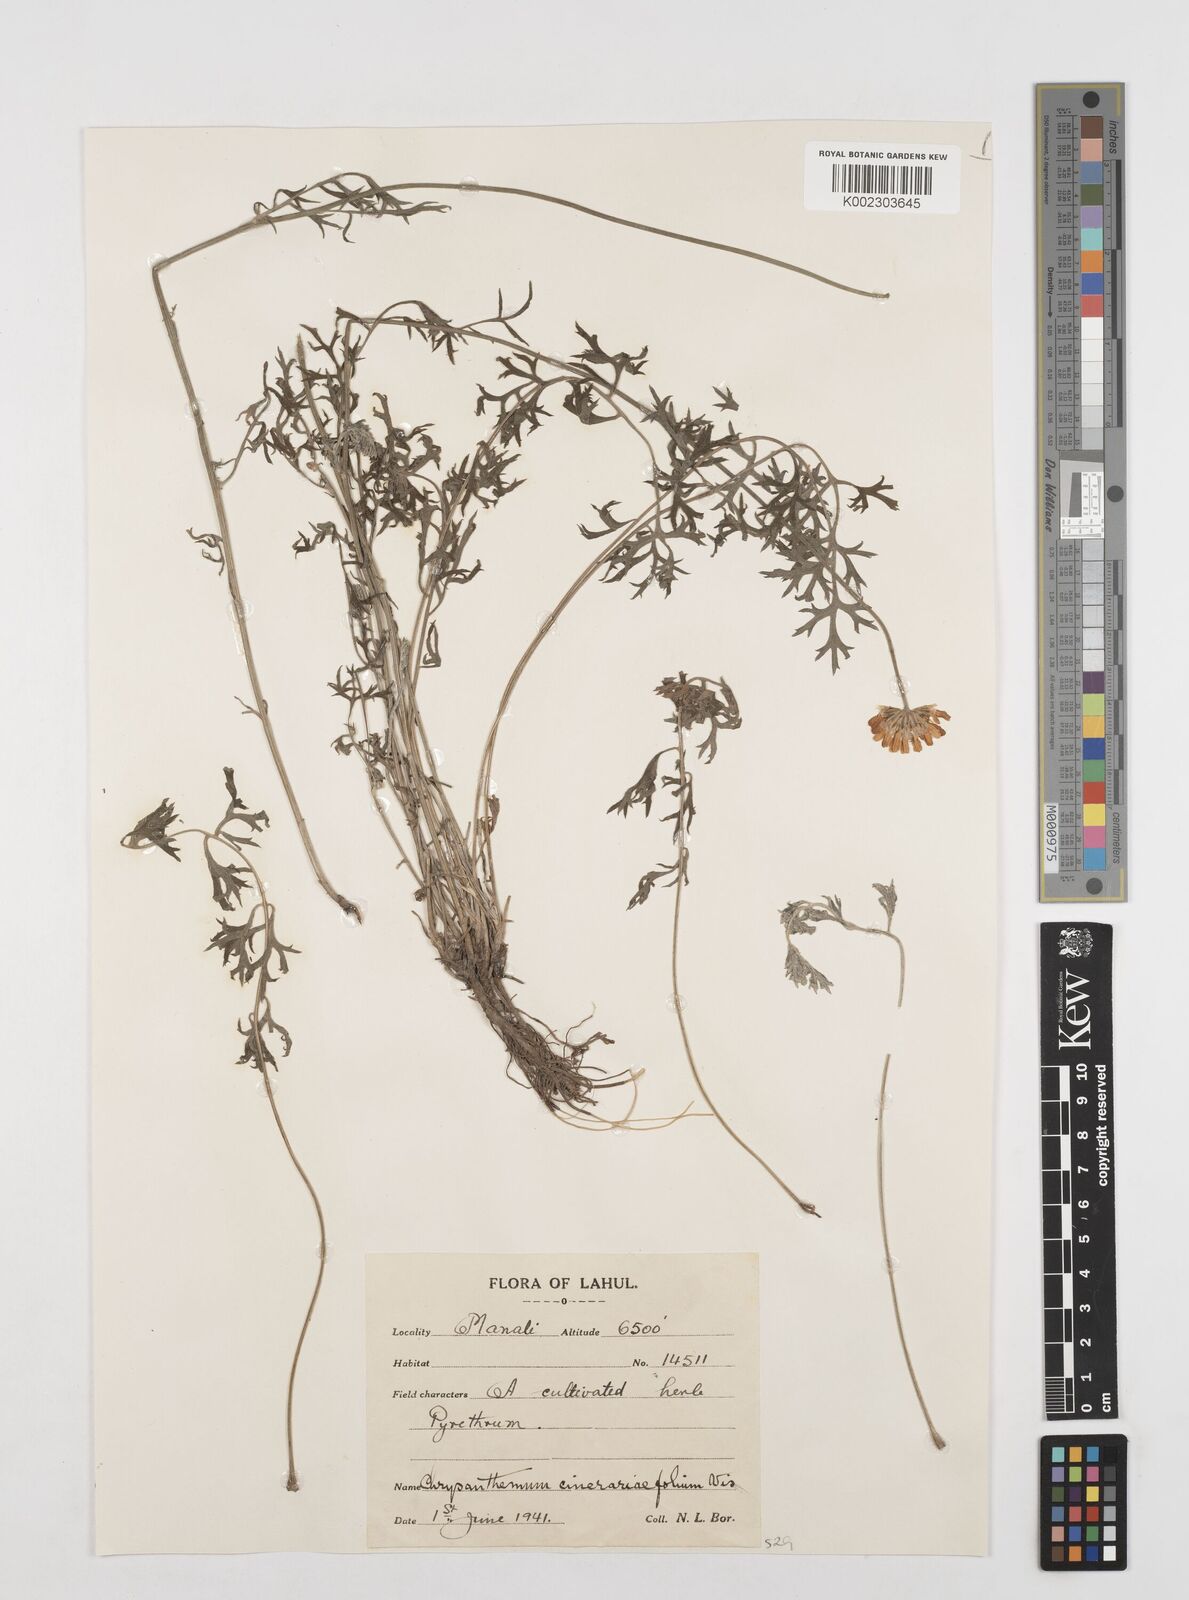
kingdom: Plantae
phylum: Tracheophyta
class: Magnoliopsida
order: Asterales
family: Asteraceae
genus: Tanacetum
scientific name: Tanacetum cinerariifolium
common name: Dalmatian pyrethrum
